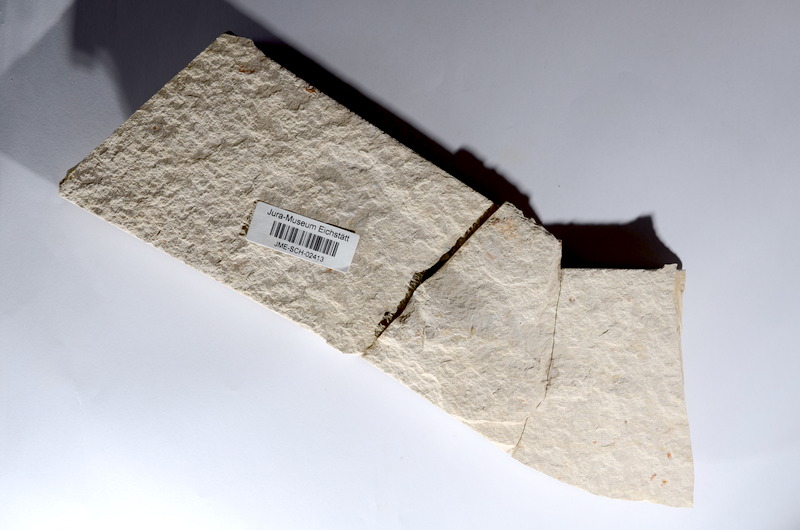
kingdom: Animalia
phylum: Chordata
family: Ascalaboidae
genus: Tharsis
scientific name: Tharsis dubius
